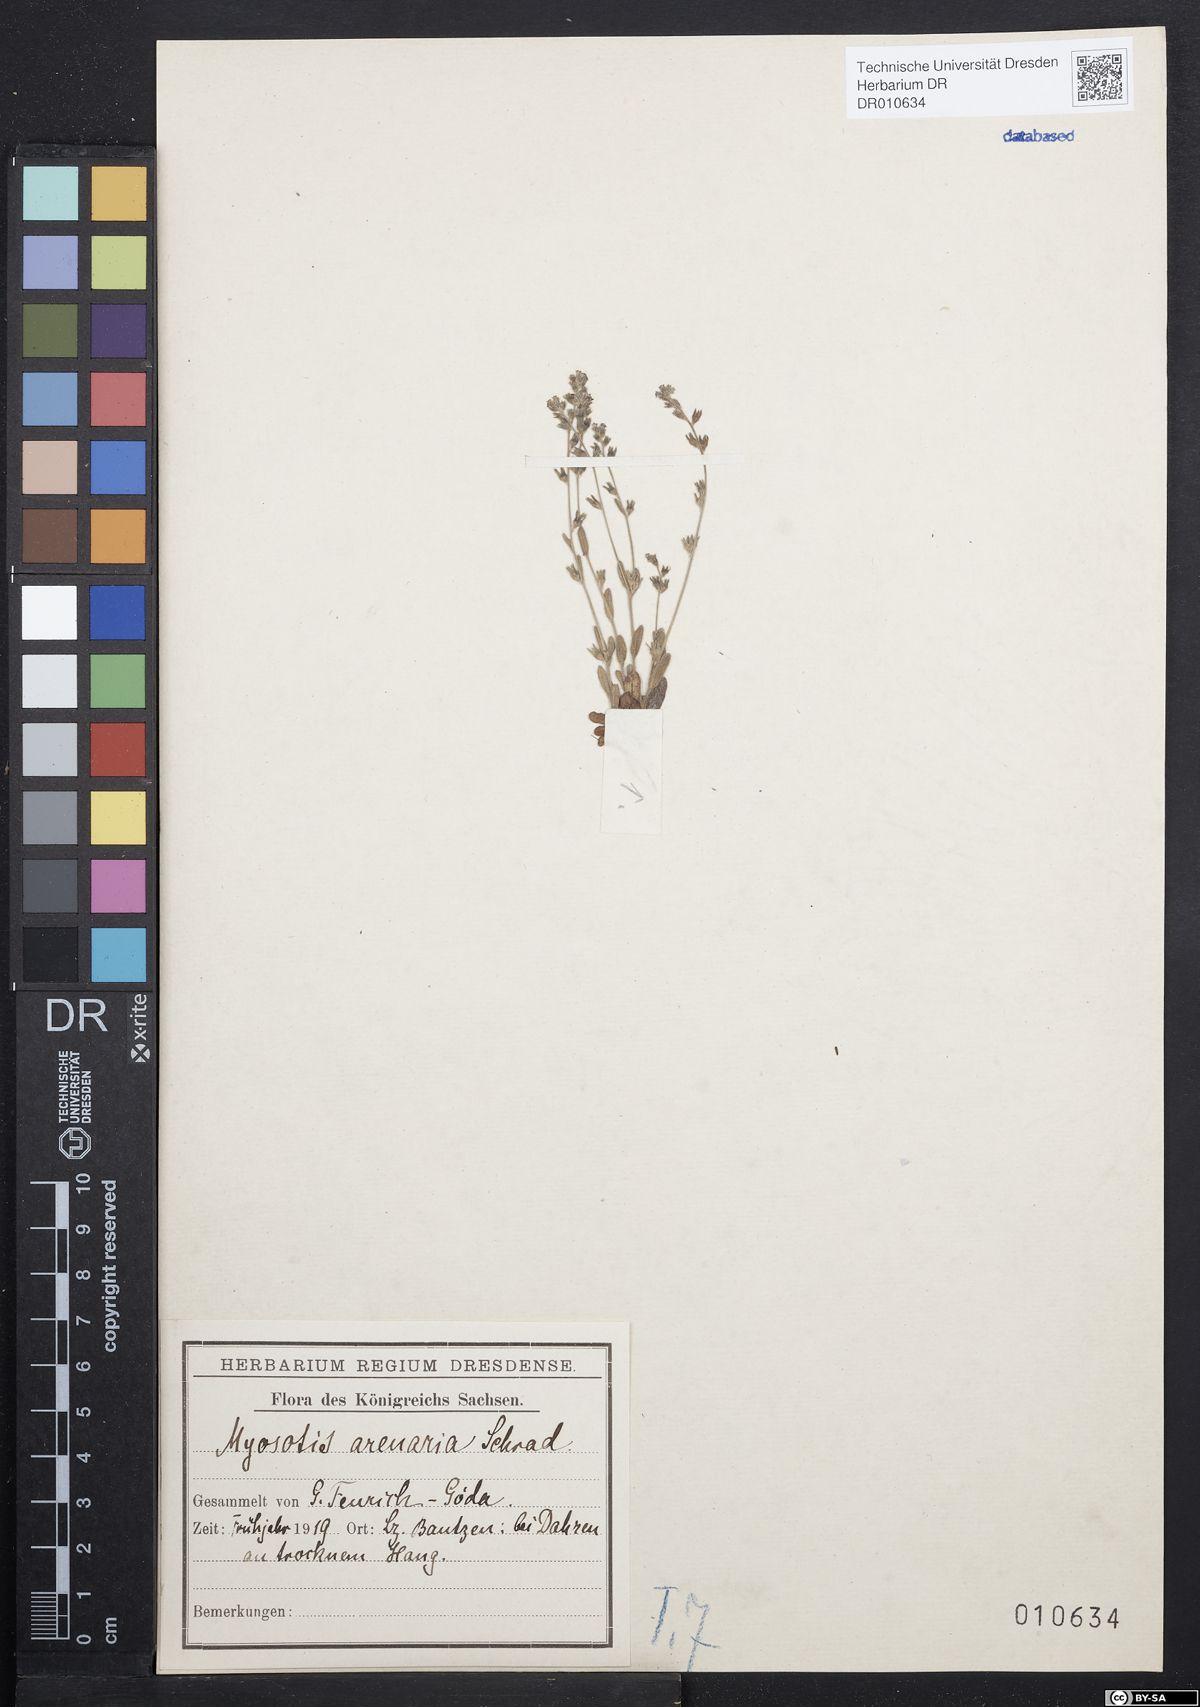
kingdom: Plantae
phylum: Tracheophyta
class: Magnoliopsida
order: Boraginales
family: Boraginaceae
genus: Myosotis
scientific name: Myosotis stricta
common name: Strict forget-me-not
